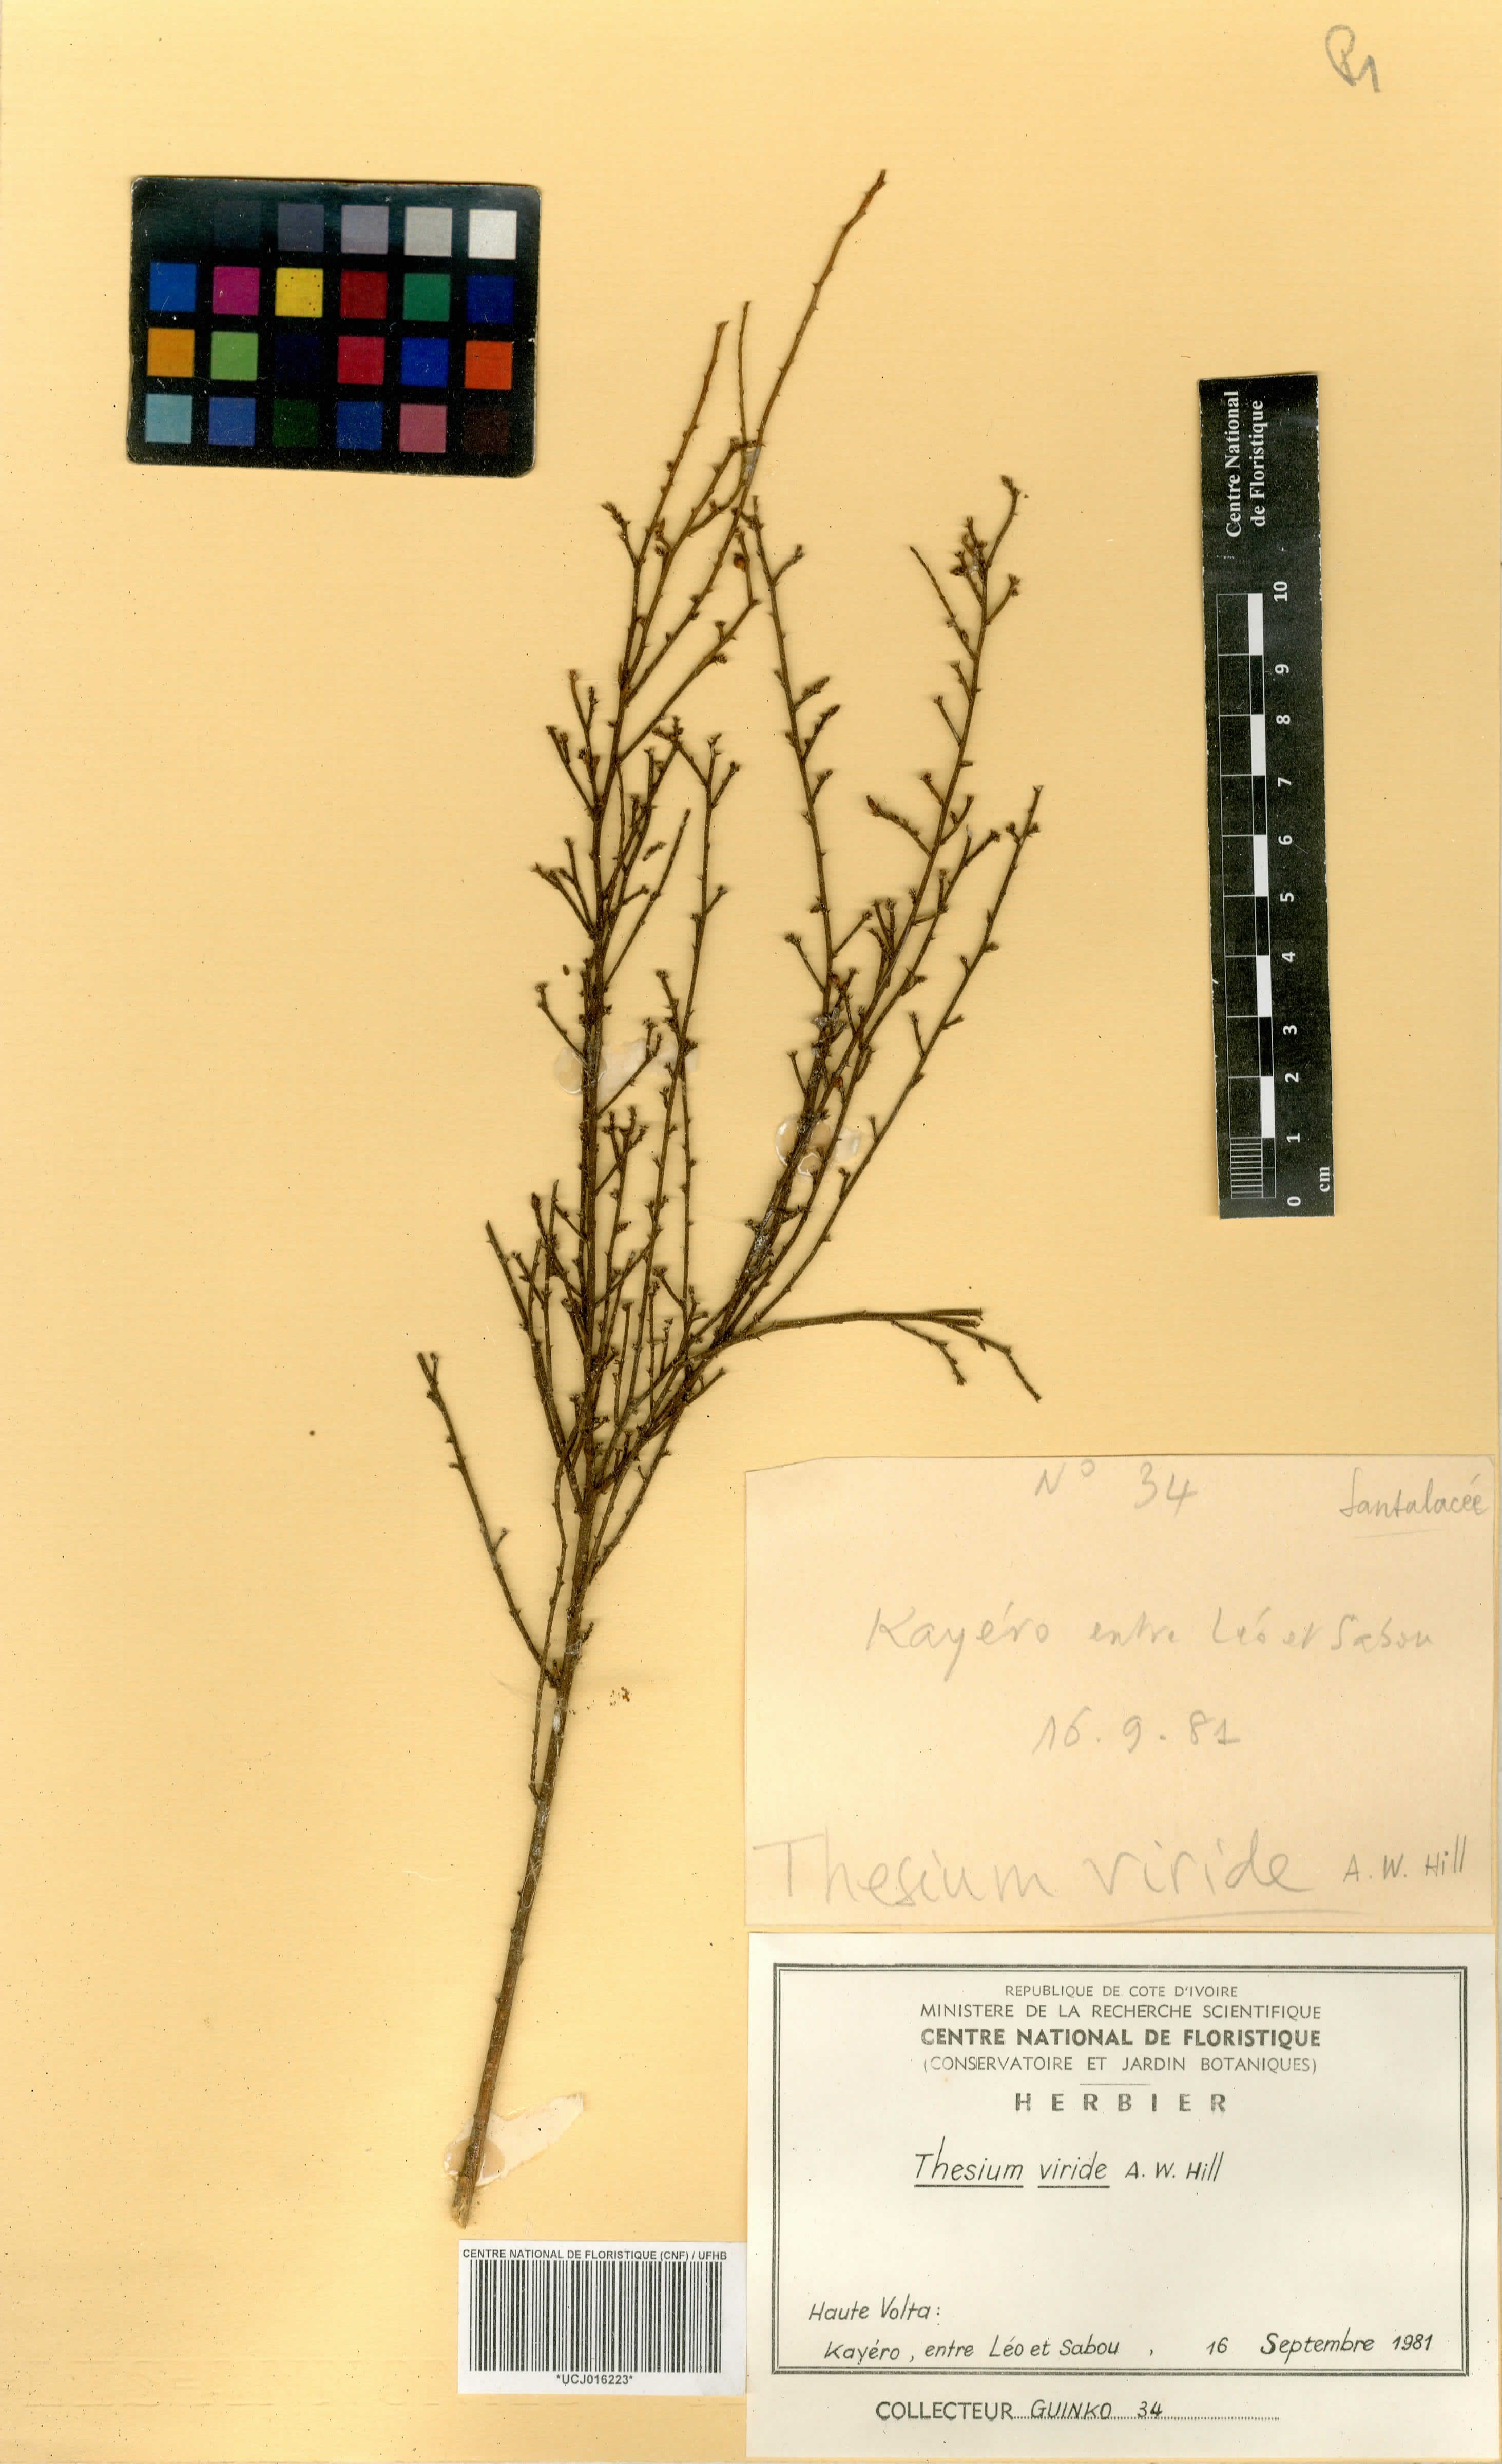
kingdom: Plantae
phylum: Tracheophyta
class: Magnoliopsida
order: Santalales
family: Thesiaceae
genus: Thesium
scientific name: Thesium viride
